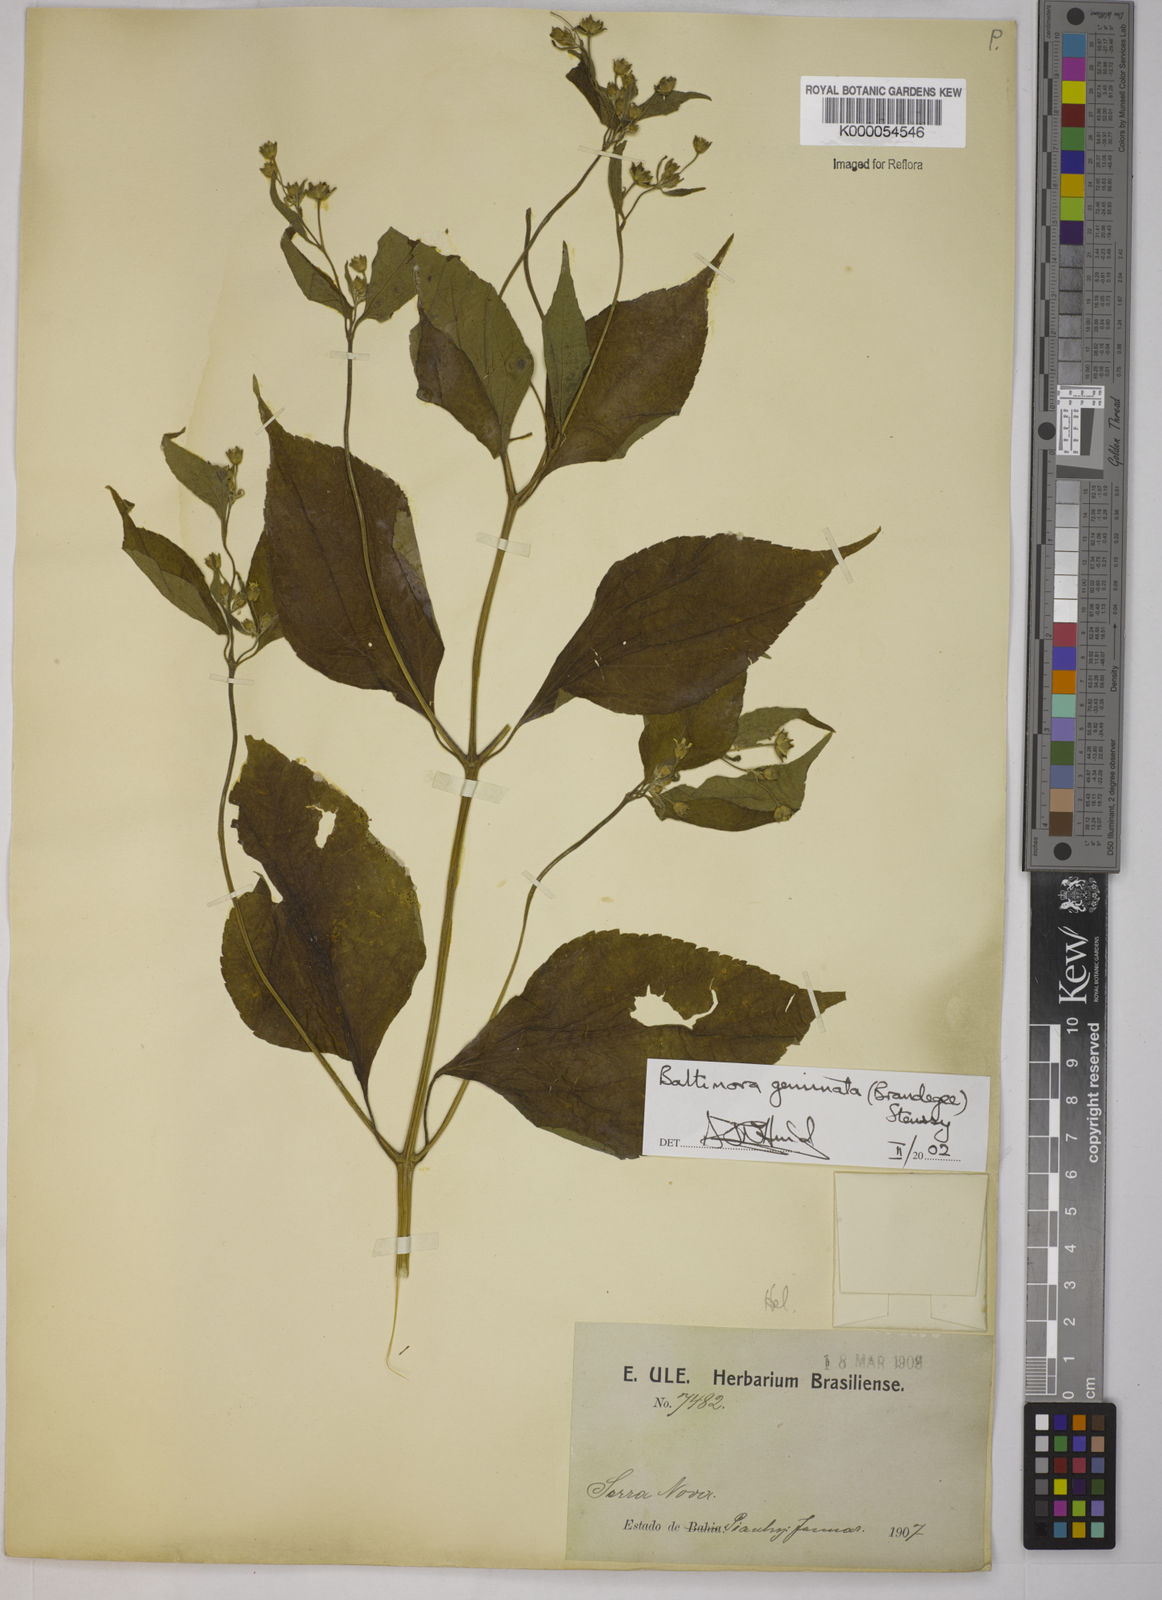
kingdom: Plantae
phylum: Tracheophyta
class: Magnoliopsida
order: Asterales
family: Asteraceae
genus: Baltimora
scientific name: Baltimora geminata
